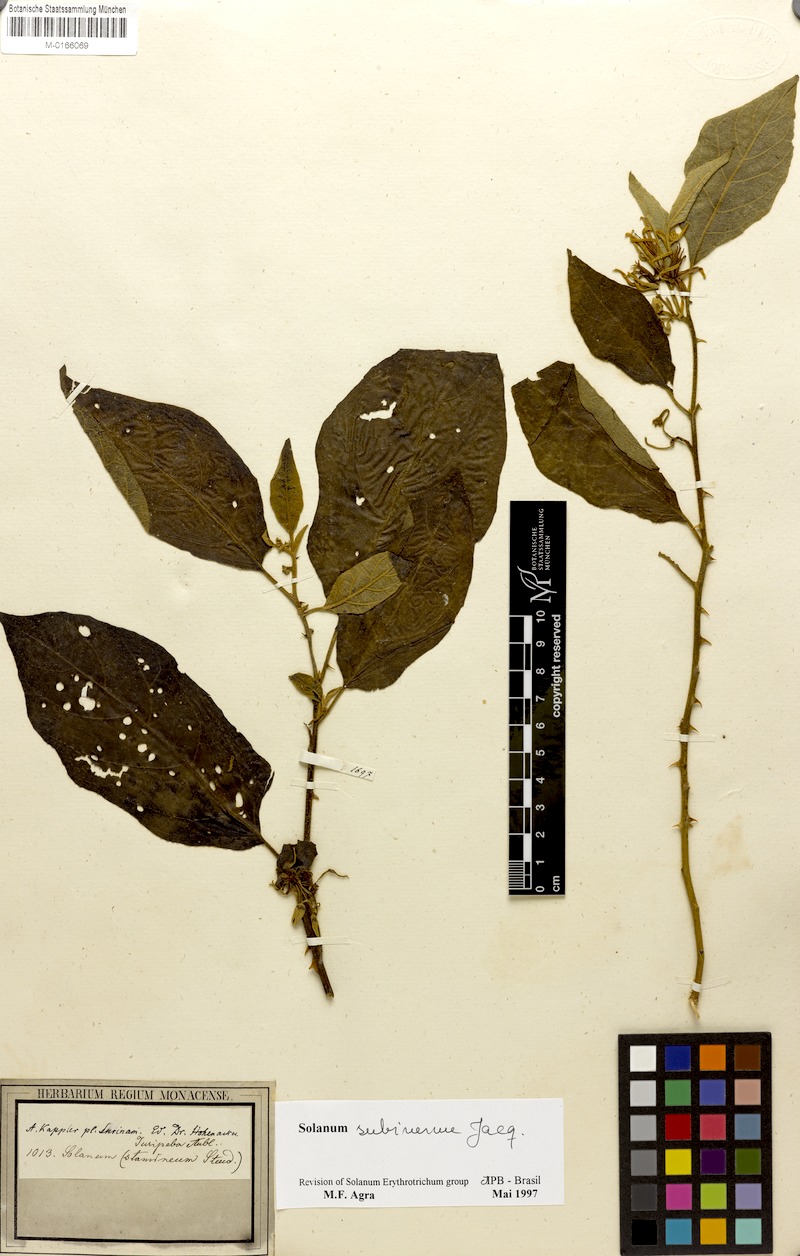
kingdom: Plantae
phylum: Tracheophyta
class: Magnoliopsida
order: Solanales
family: Solanaceae
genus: Solanum
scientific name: Solanum subinerme
